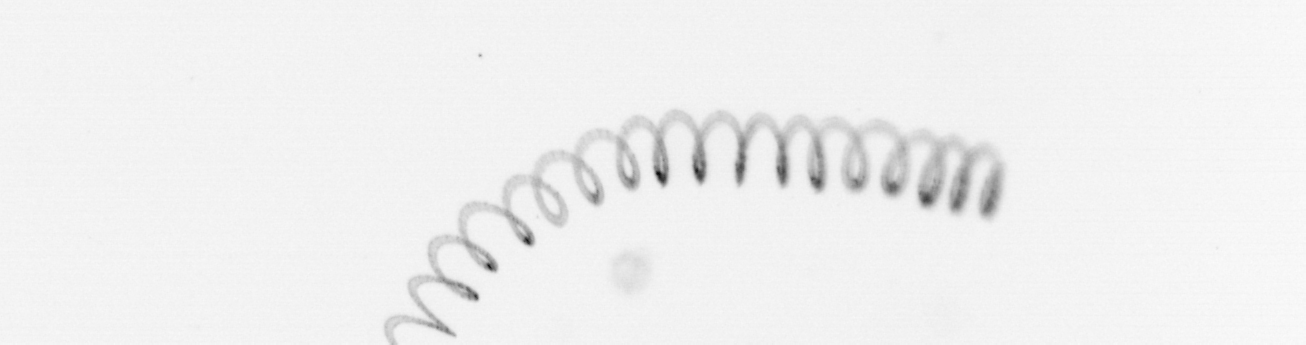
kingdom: Chromista
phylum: Ochrophyta
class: Bacillariophyceae
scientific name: Bacillariophyceae
